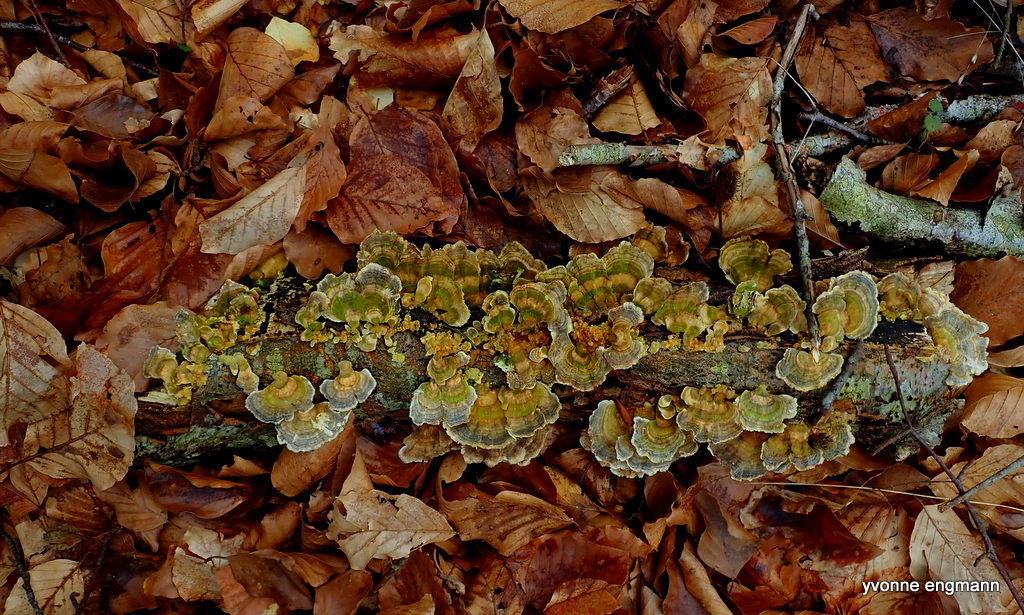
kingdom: Fungi
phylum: Basidiomycota
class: Agaricomycetes
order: Polyporales
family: Polyporaceae
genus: Trametes
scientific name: Trametes versicolor
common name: broget læderporesvamp
